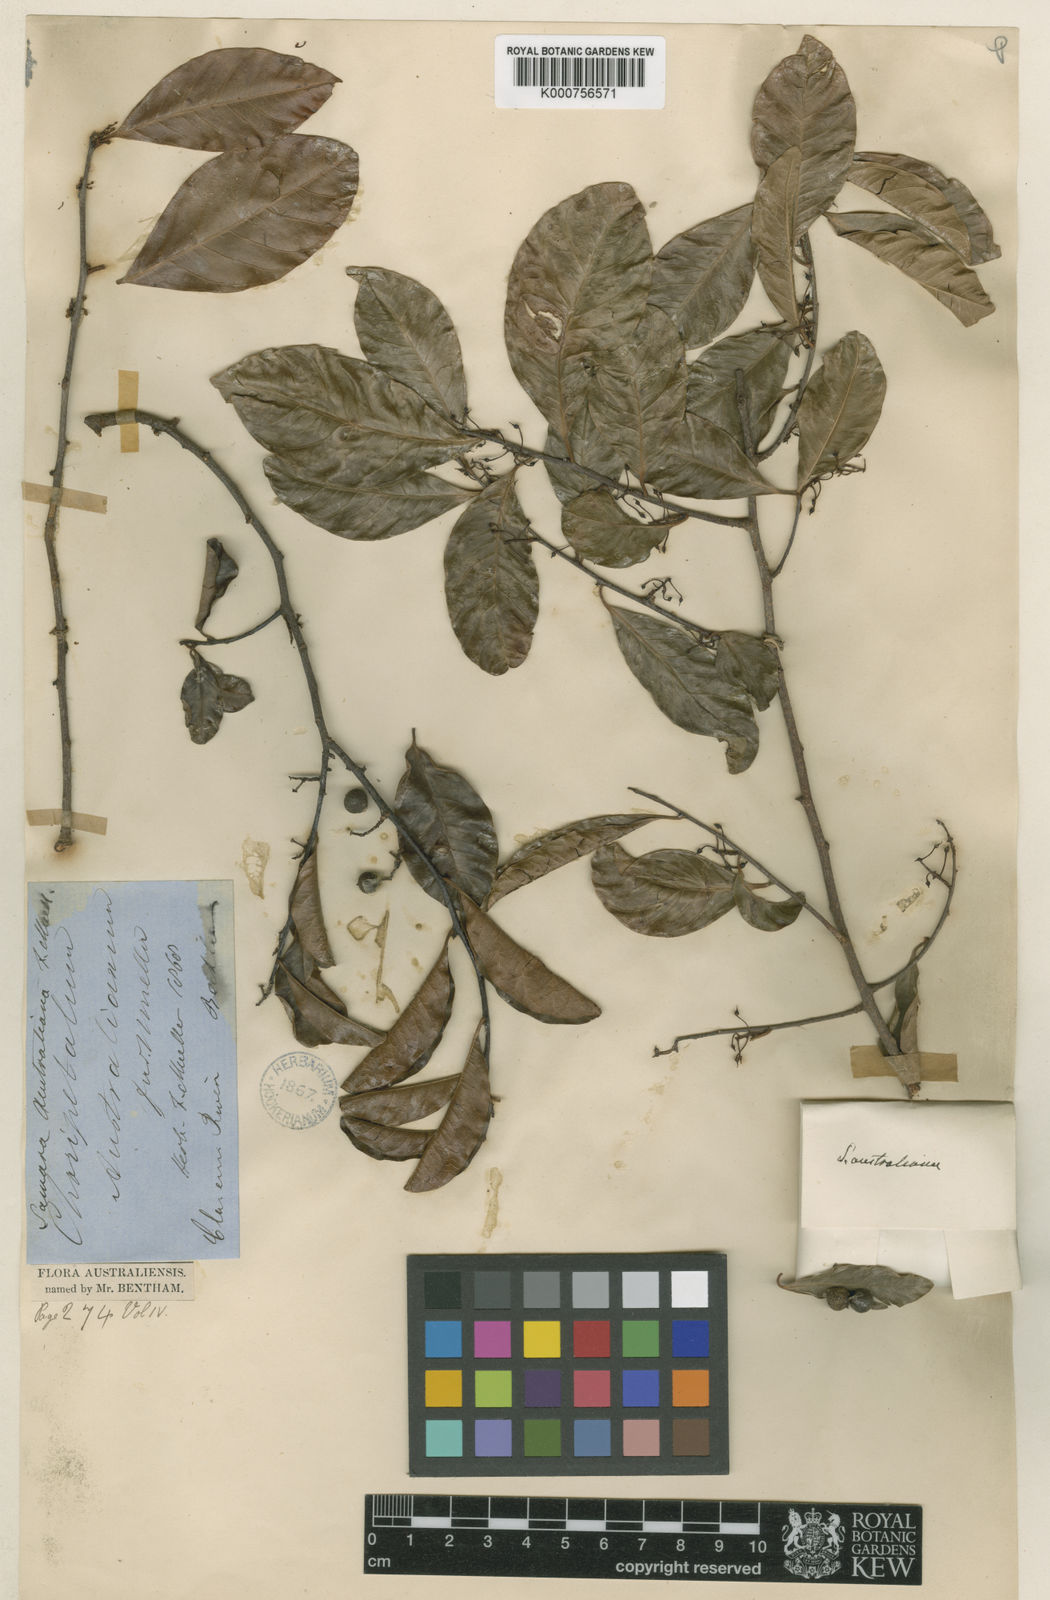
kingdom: Plantae
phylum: Tracheophyta
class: Magnoliopsida
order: Ericales
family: Primulaceae
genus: Embelia
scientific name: Embelia australiana
